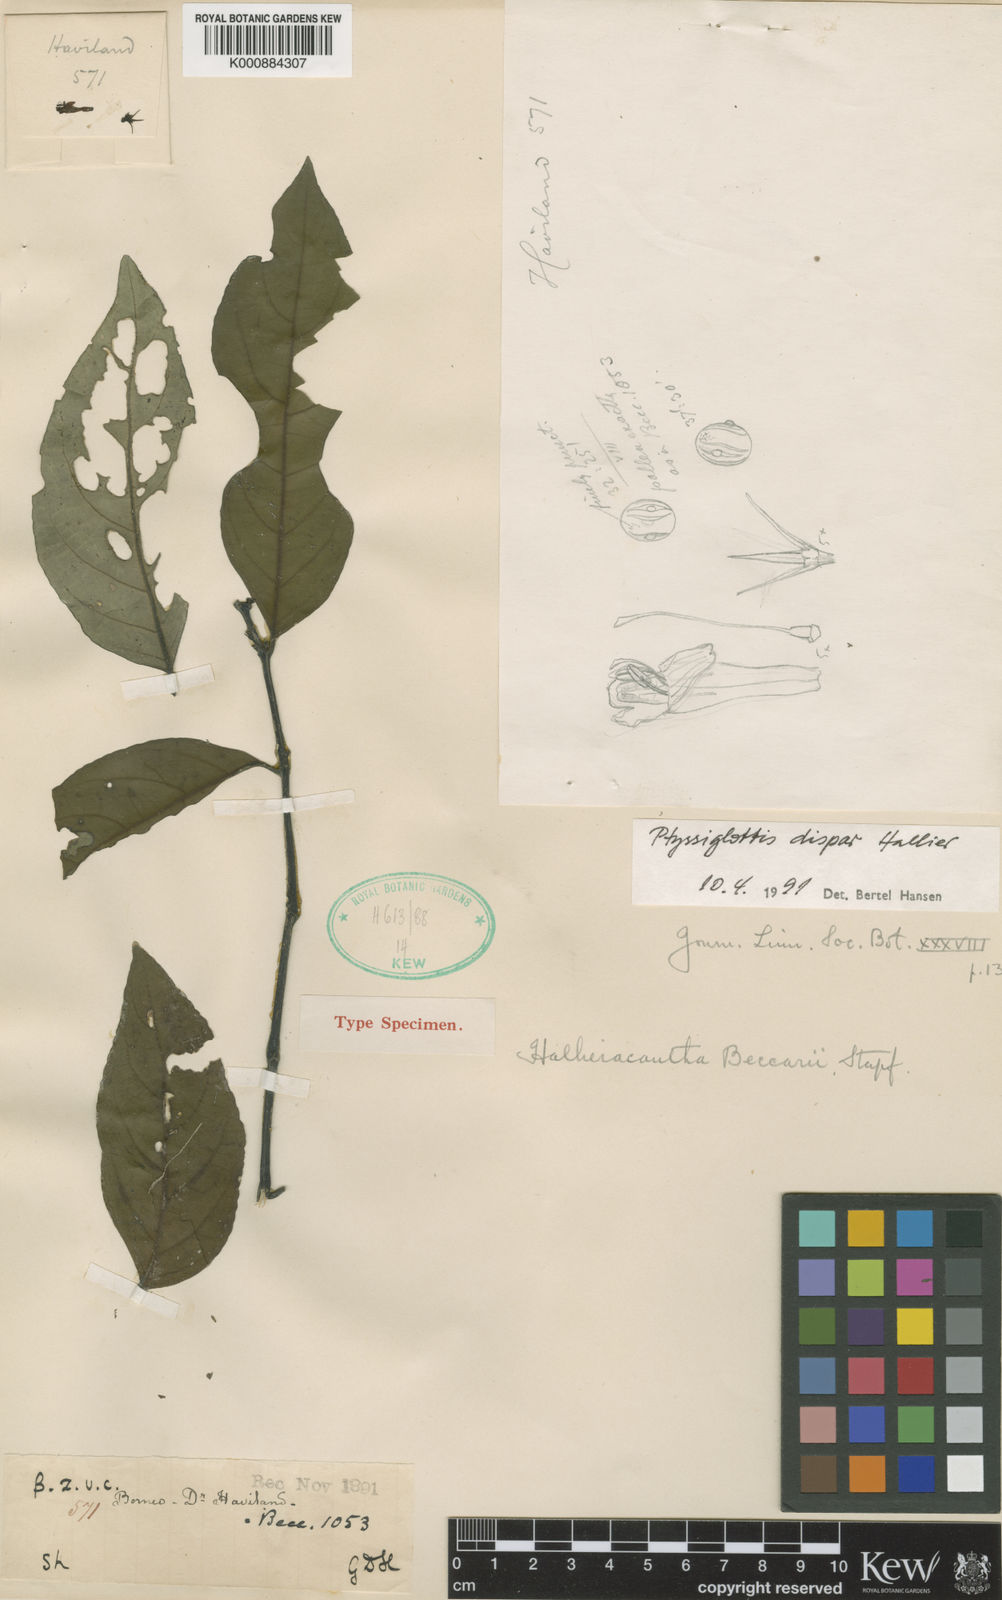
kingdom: Plantae
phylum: Tracheophyta
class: Magnoliopsida
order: Lamiales
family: Acanthaceae
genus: Justicia
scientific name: Justicia pulgarensis
